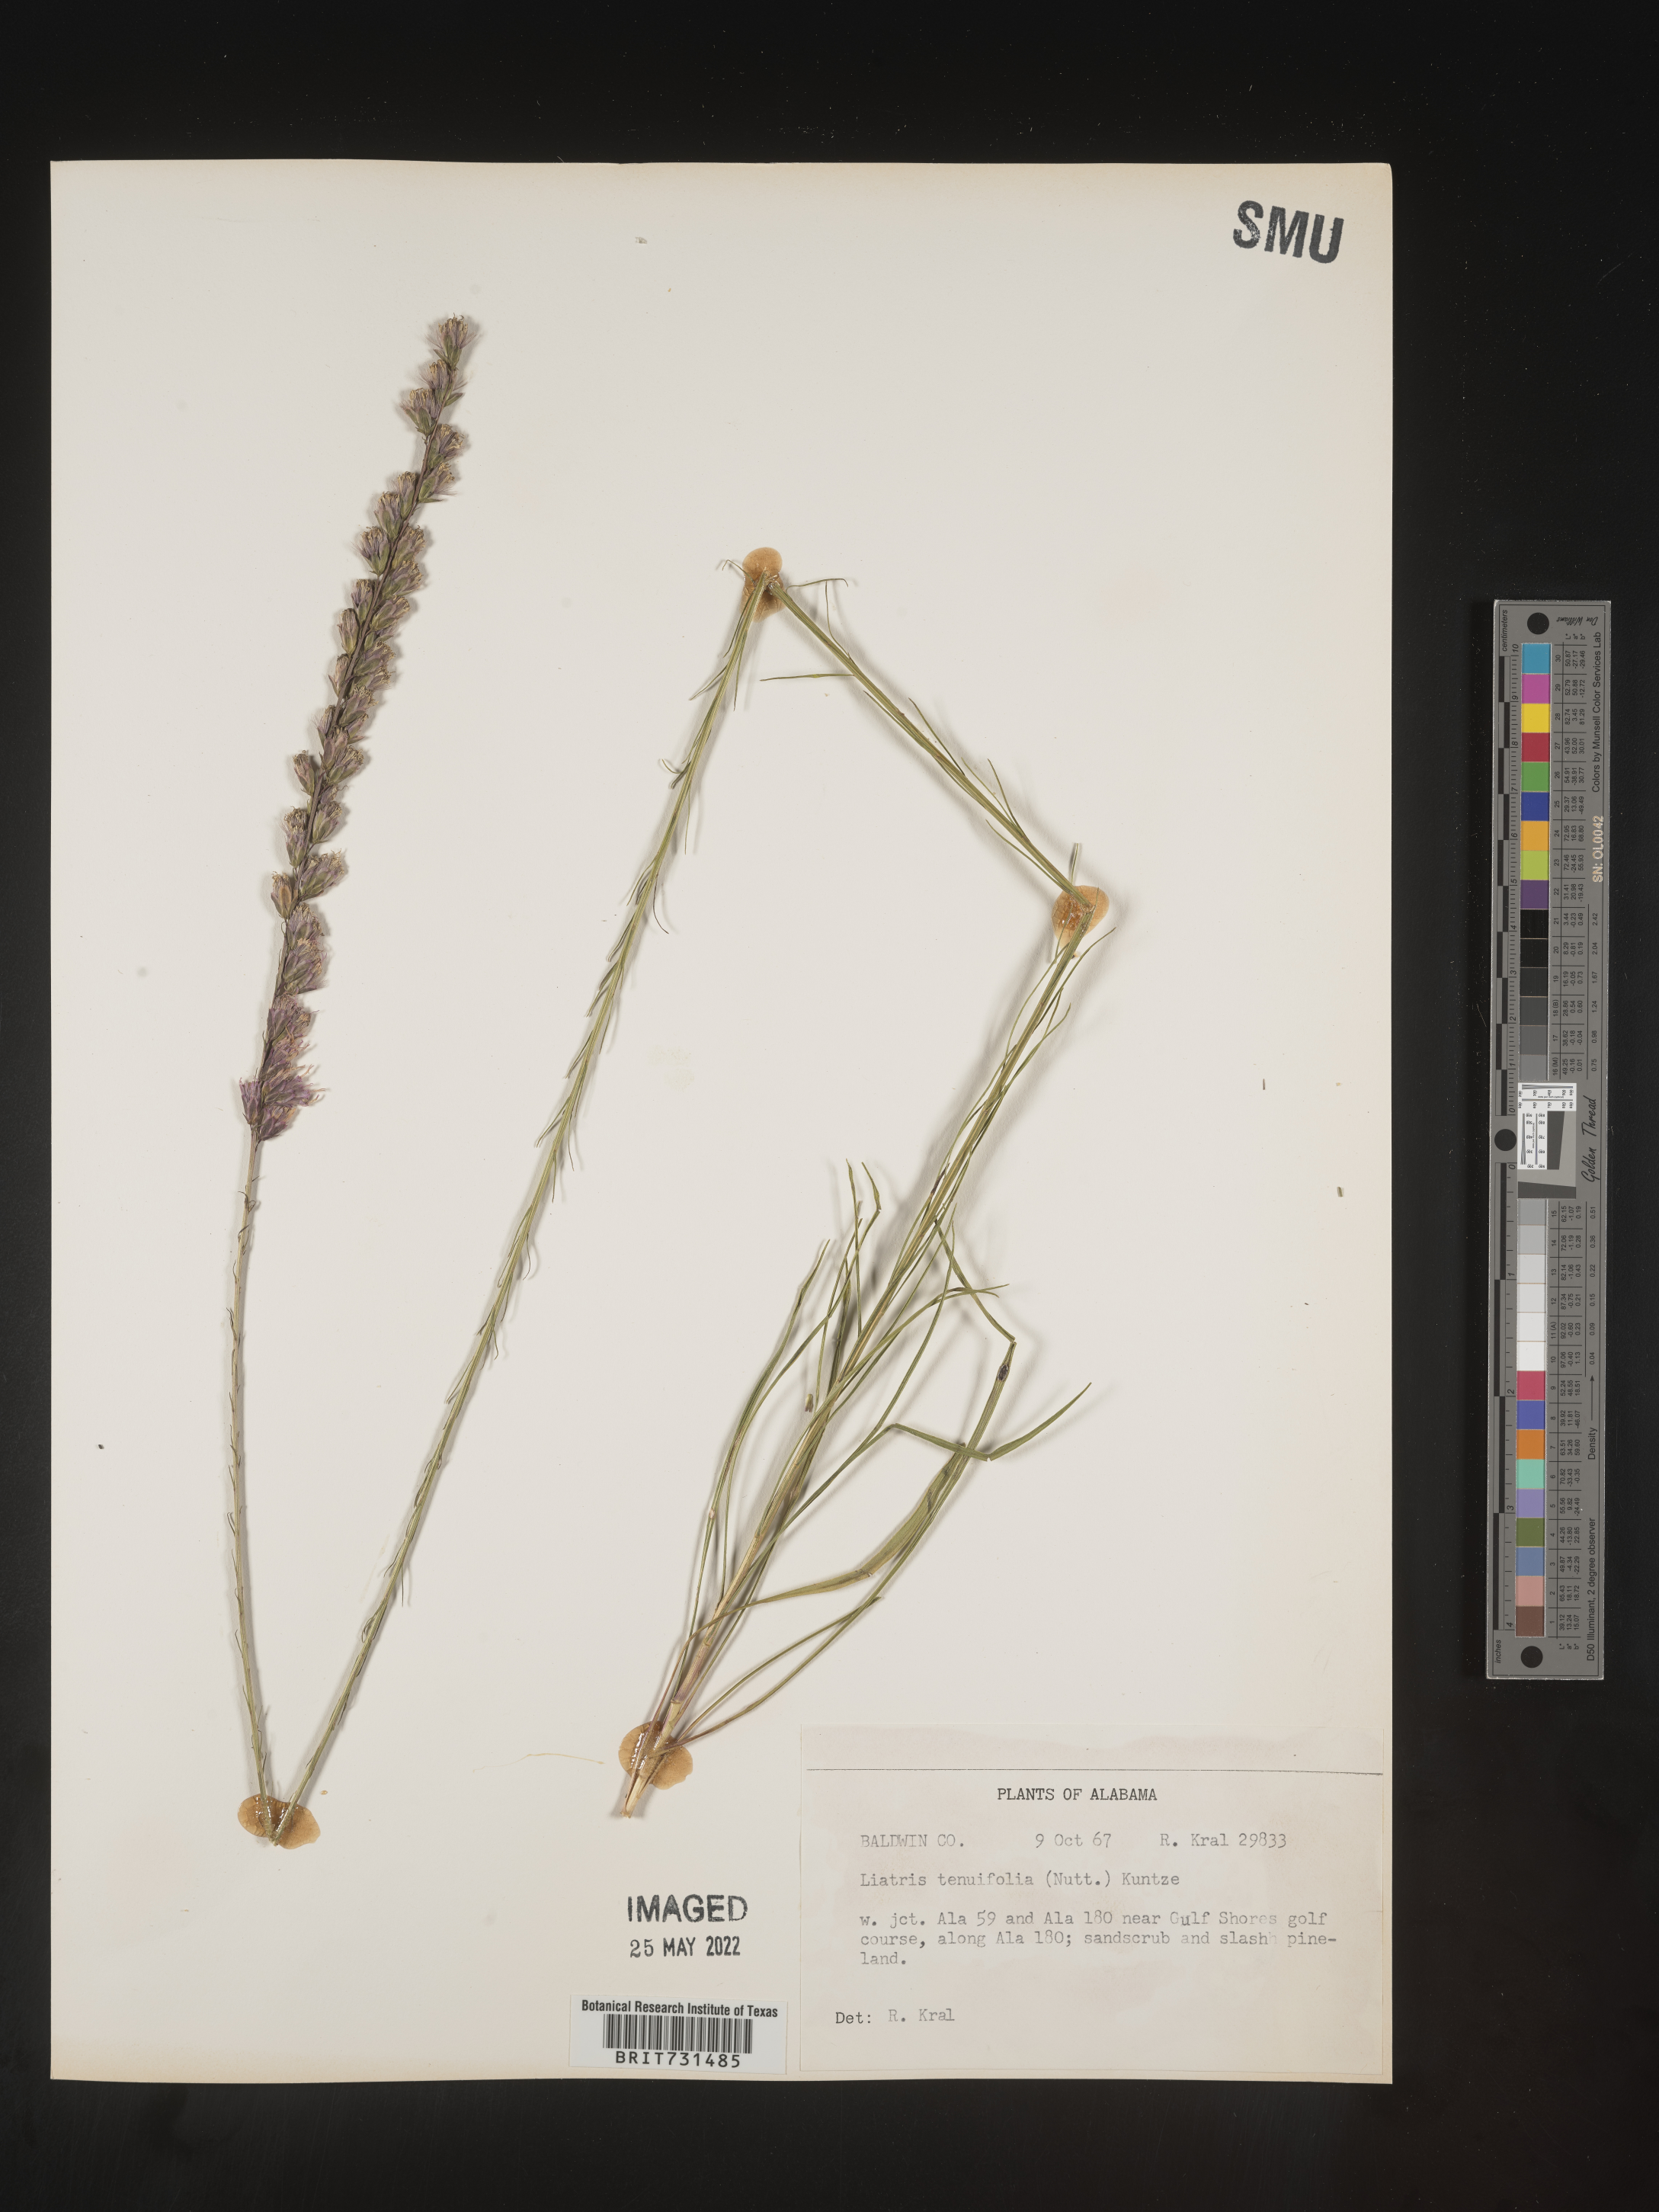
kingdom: Plantae
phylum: Tracheophyta
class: Magnoliopsida
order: Asterales
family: Asteraceae
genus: Liatris
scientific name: Liatris tenuifolia
